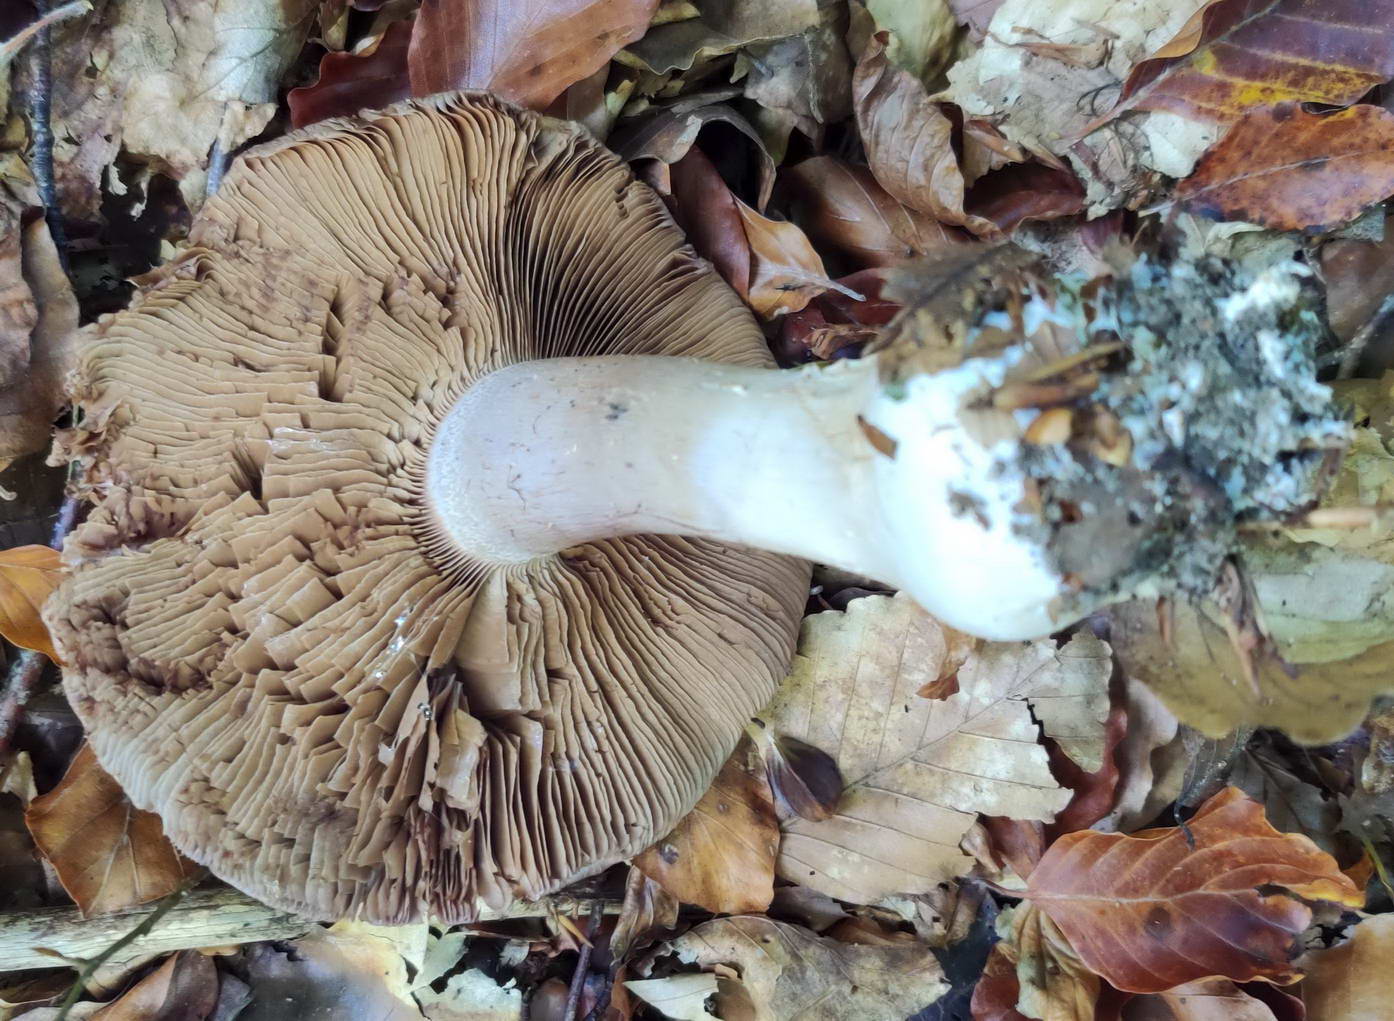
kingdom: Fungi
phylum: Basidiomycota
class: Agaricomycetes
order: Agaricales
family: Cortinariaceae
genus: Cortinarius
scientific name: Cortinarius largus
